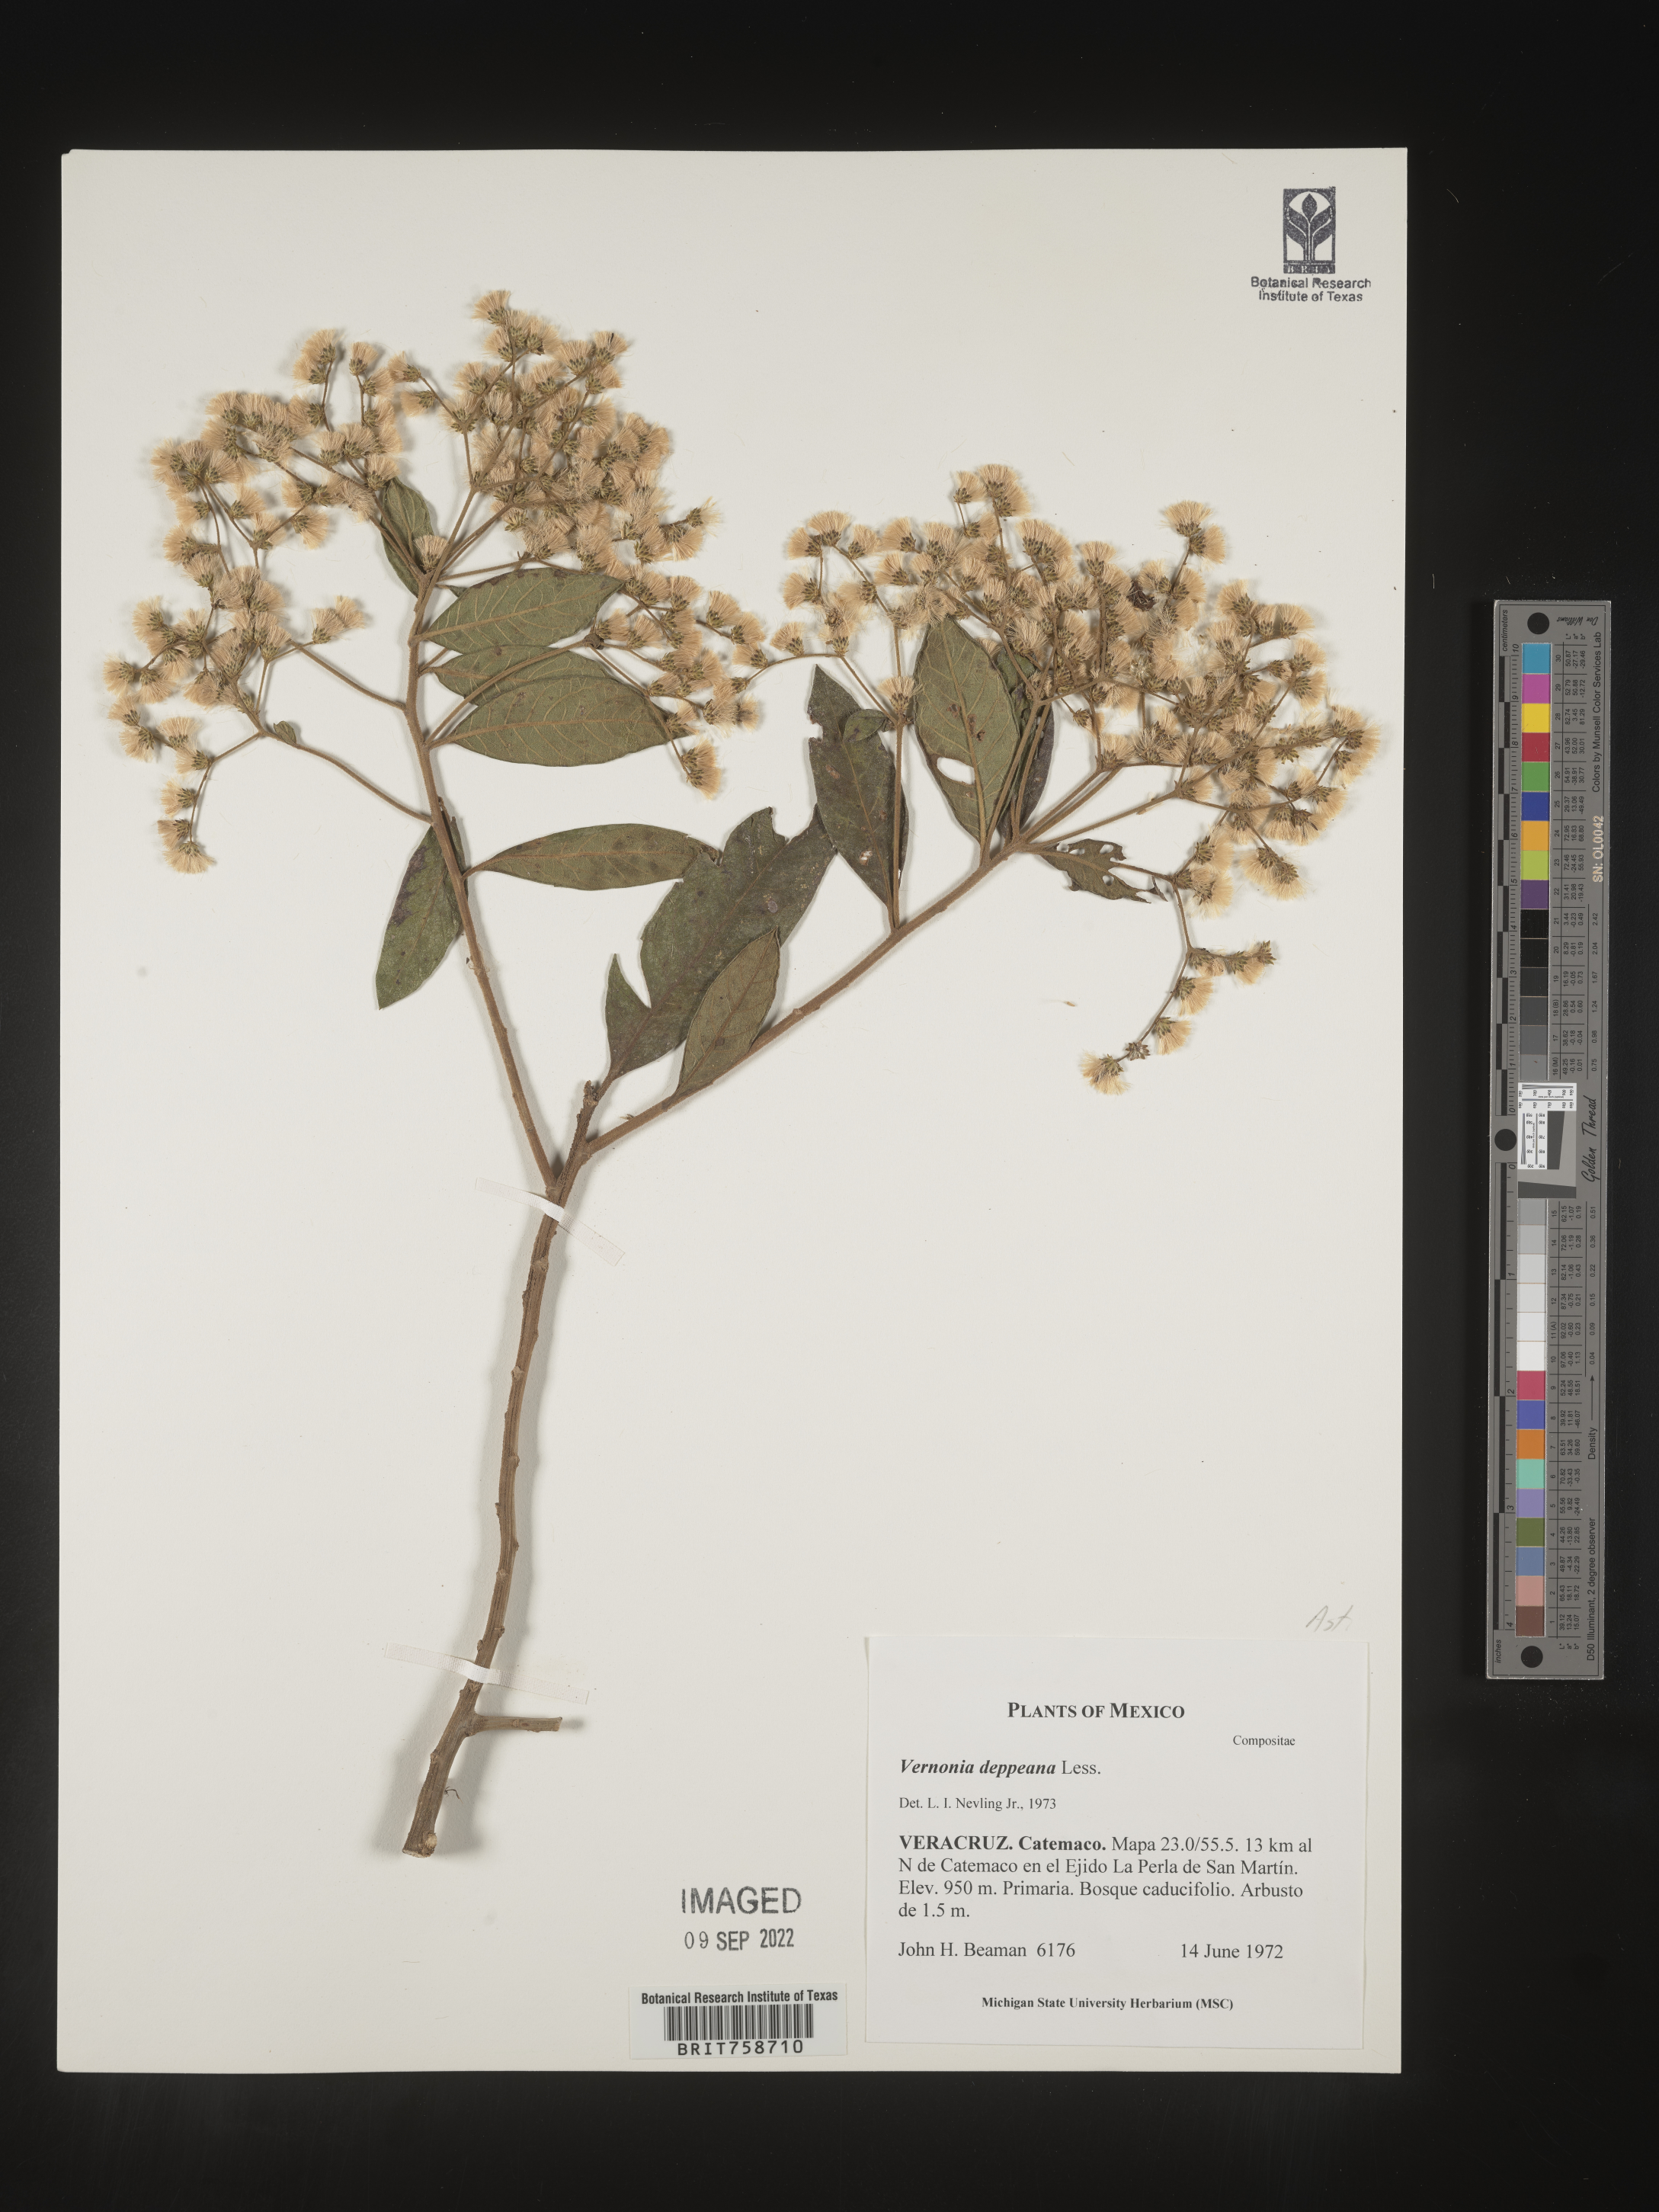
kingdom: Plantae
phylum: Tracheophyta
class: Magnoliopsida
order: Asterales
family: Asteraceae
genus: Vernonia
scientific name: Vernonia
